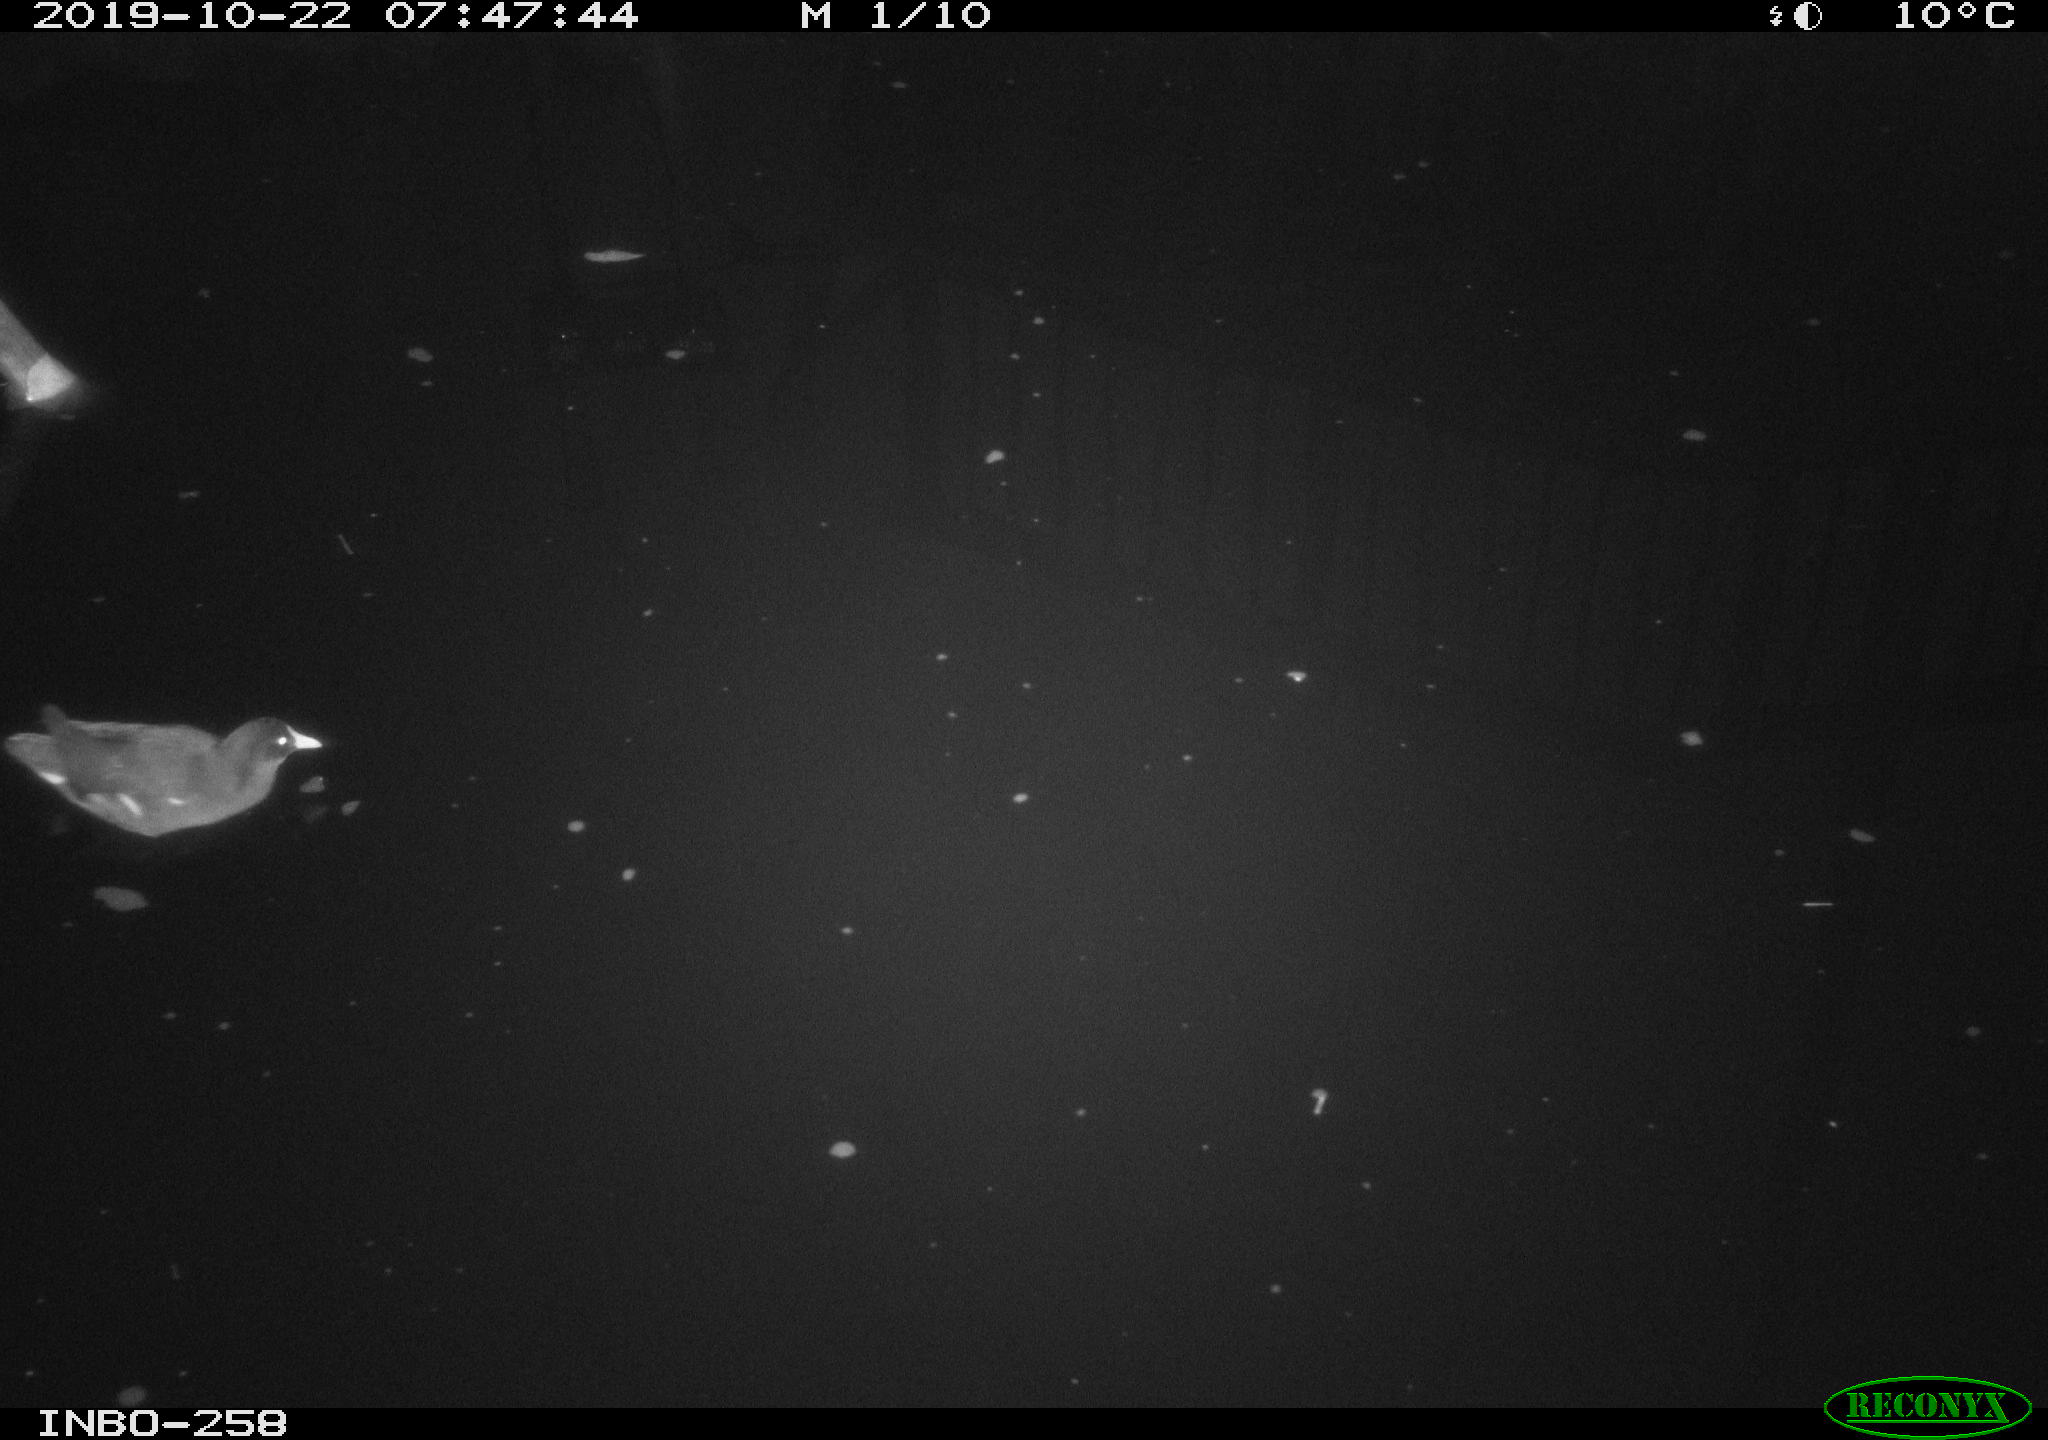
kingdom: Animalia
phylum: Chordata
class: Aves
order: Gruiformes
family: Rallidae
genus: Gallinula
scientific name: Gallinula chloropus
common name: Common moorhen
